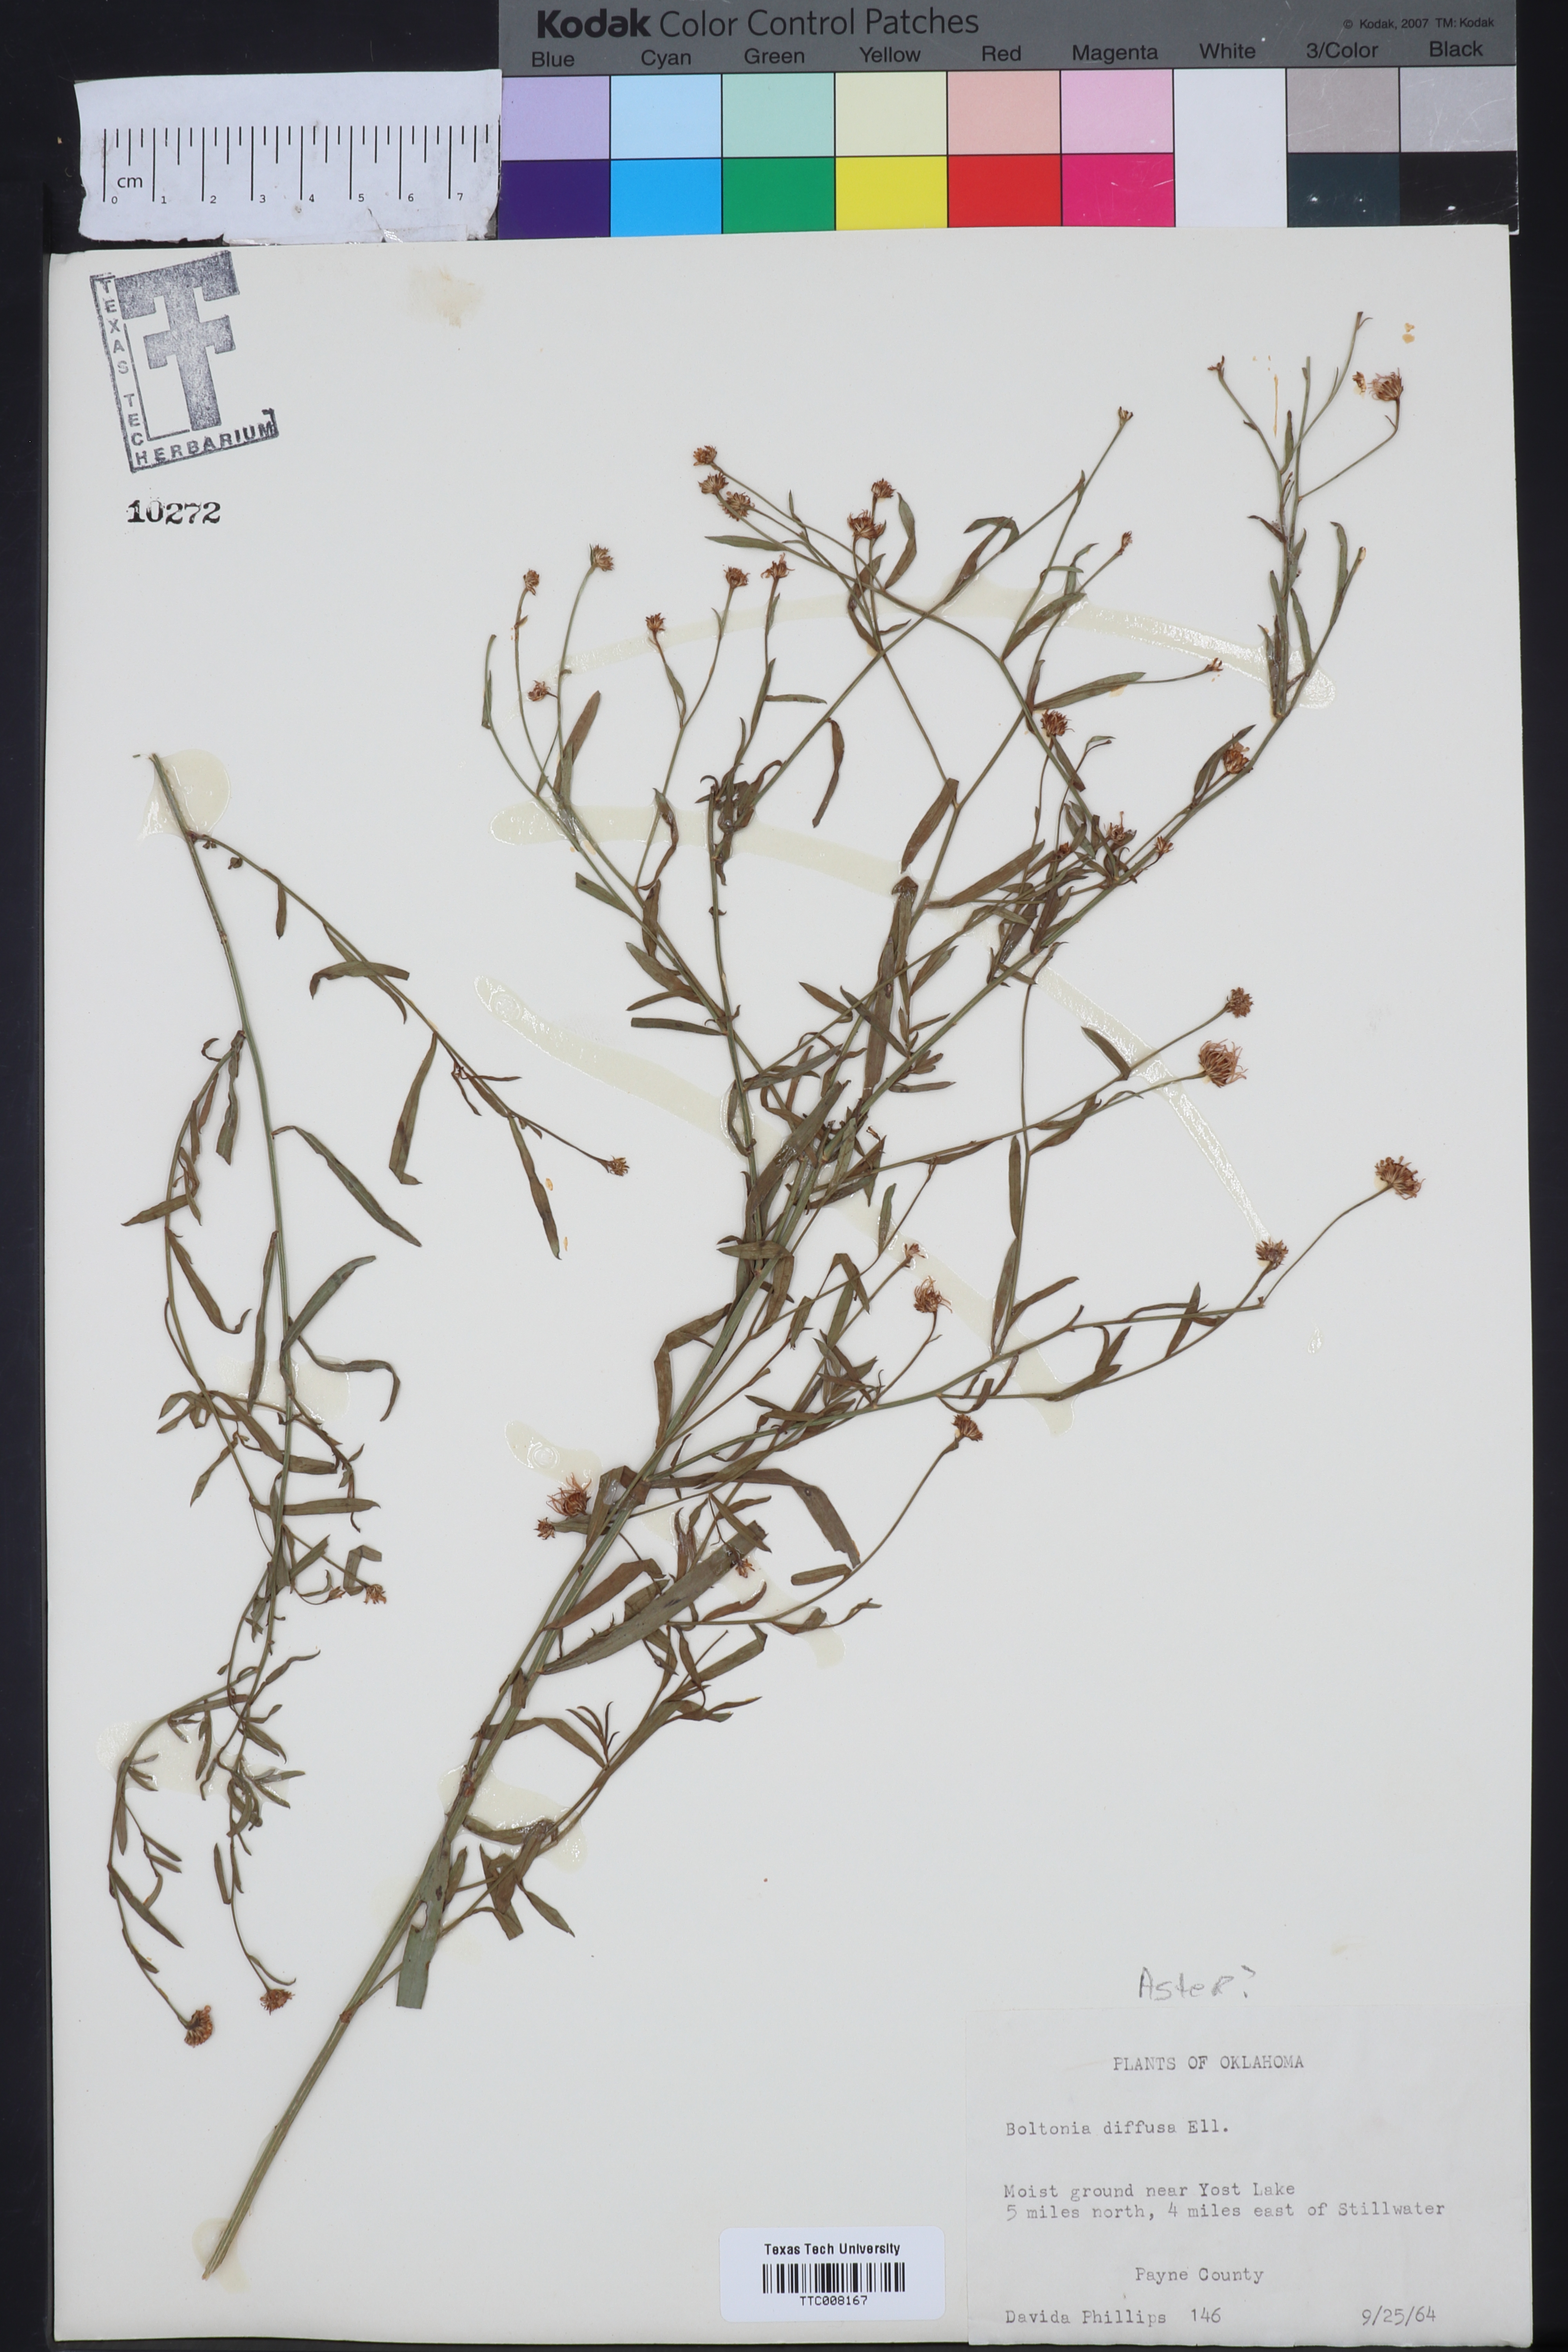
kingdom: Plantae
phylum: Tracheophyta
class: Magnoliopsida
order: Asterales
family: Asteraceae
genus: Boltonia
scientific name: Boltonia diffusa
